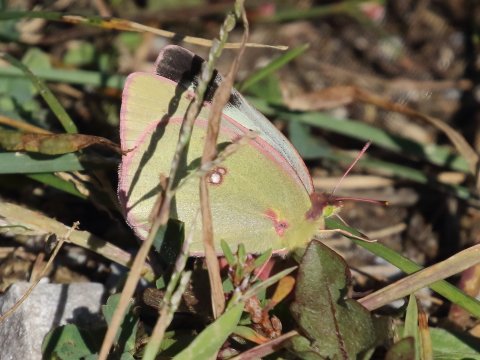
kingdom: Animalia
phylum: Arthropoda
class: Insecta
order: Lepidoptera
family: Pieridae
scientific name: Pieridae
